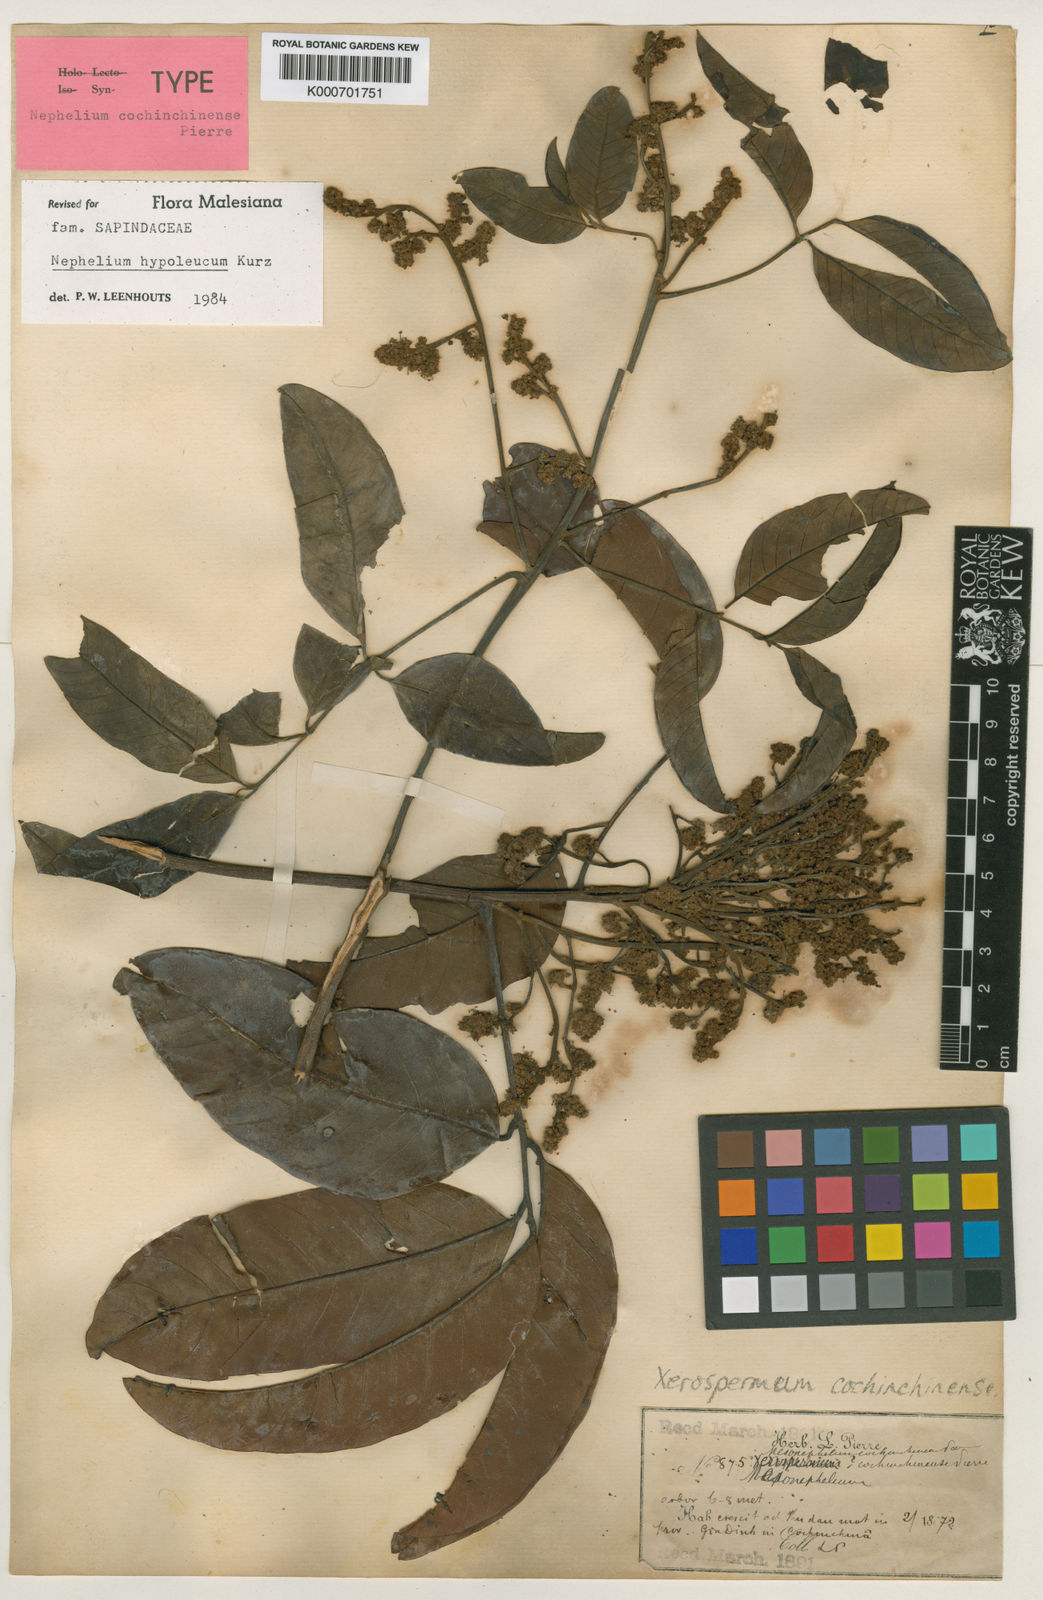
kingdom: Plantae
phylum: Tracheophyta
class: Magnoliopsida
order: Sapindales
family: Sapindaceae
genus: Nephelium
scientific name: Nephelium hypoleucum
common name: Korlan
